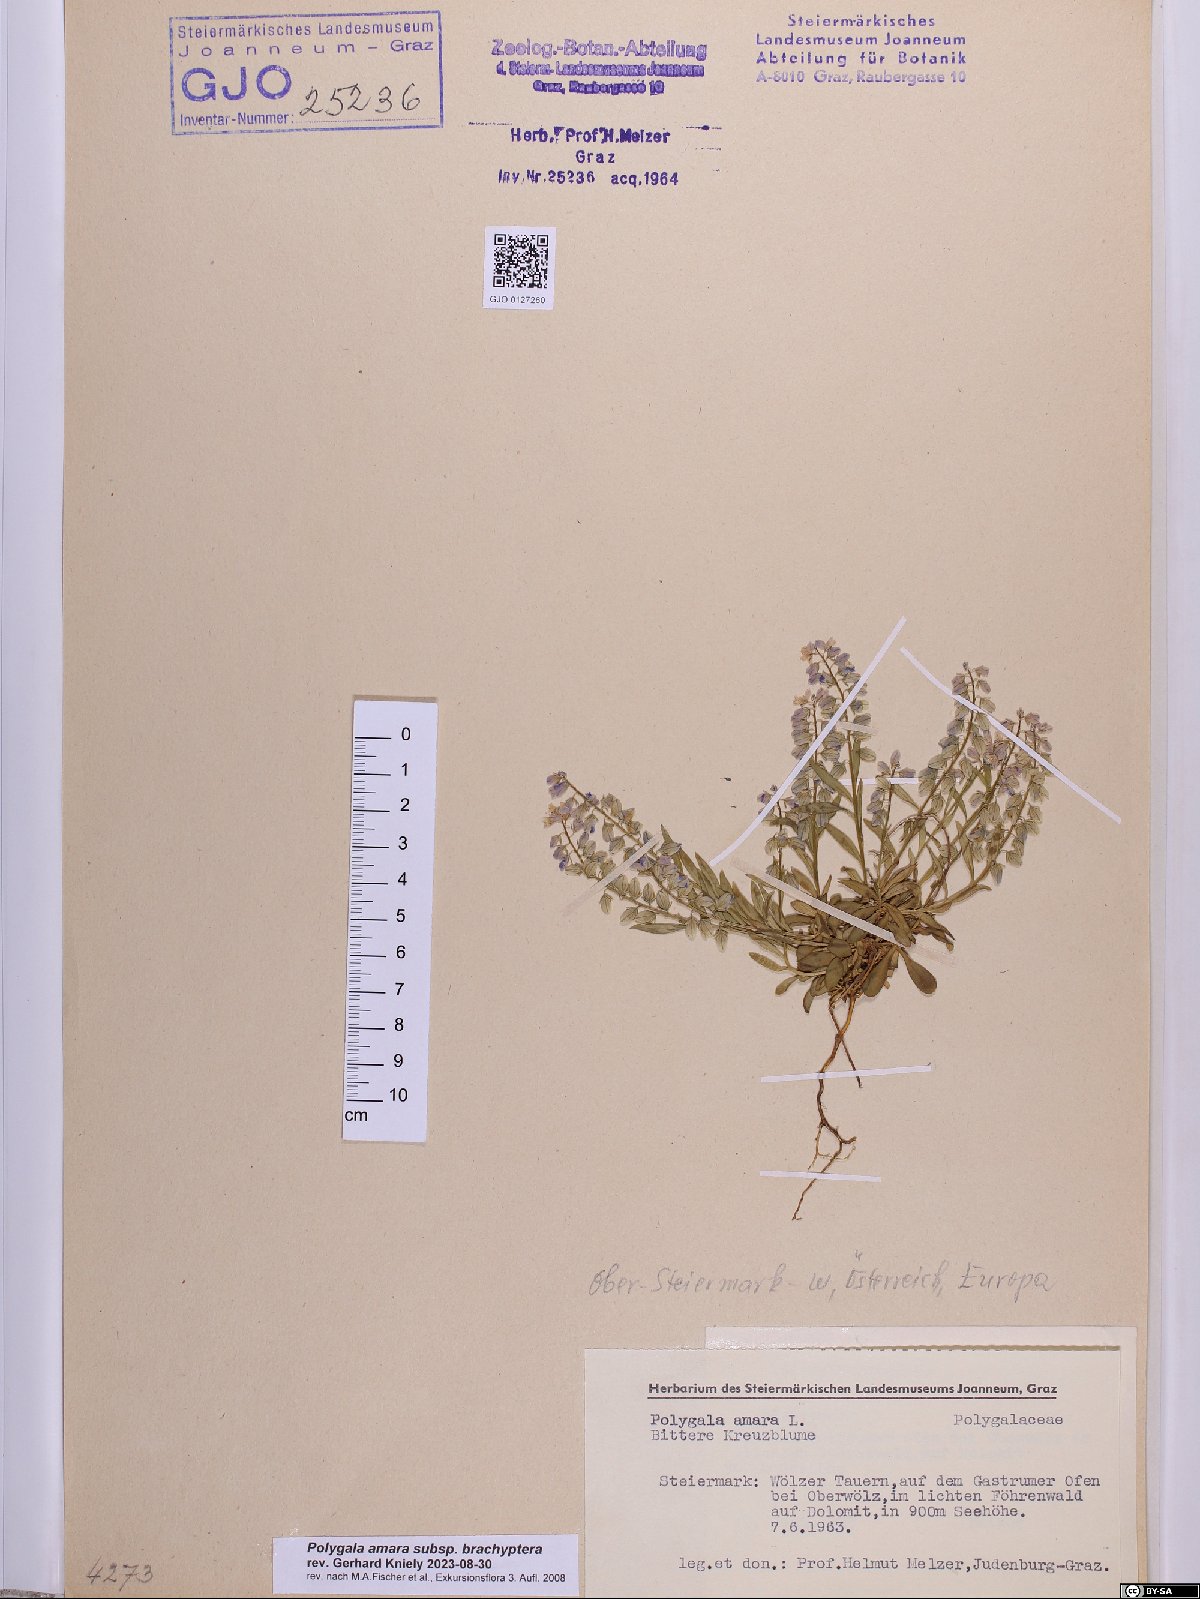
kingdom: Plantae
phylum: Tracheophyta
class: Magnoliopsida
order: Fabales
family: Polygalaceae
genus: Polygala
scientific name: Polygala amara
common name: Milkwort
